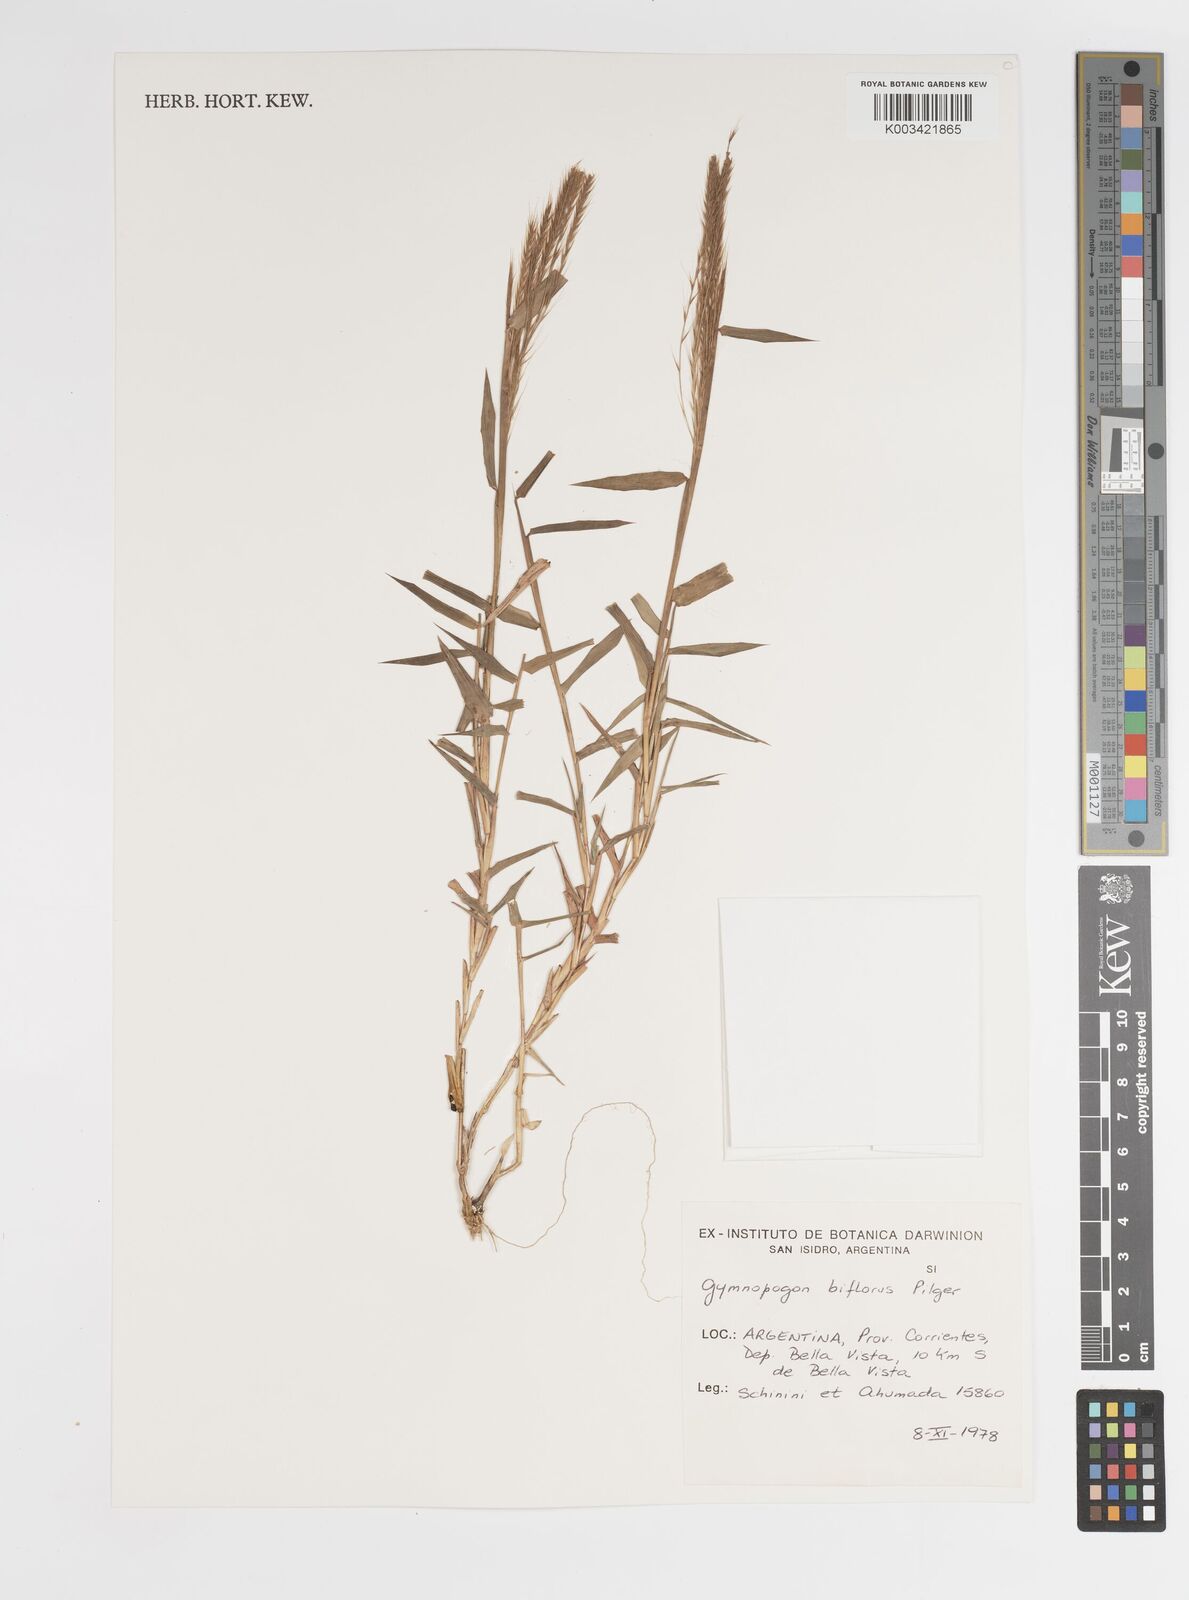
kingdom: Plantae
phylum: Tracheophyta
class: Liliopsida
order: Poales
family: Poaceae
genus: Gymnopogon
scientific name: Gymnopogon spicatus
